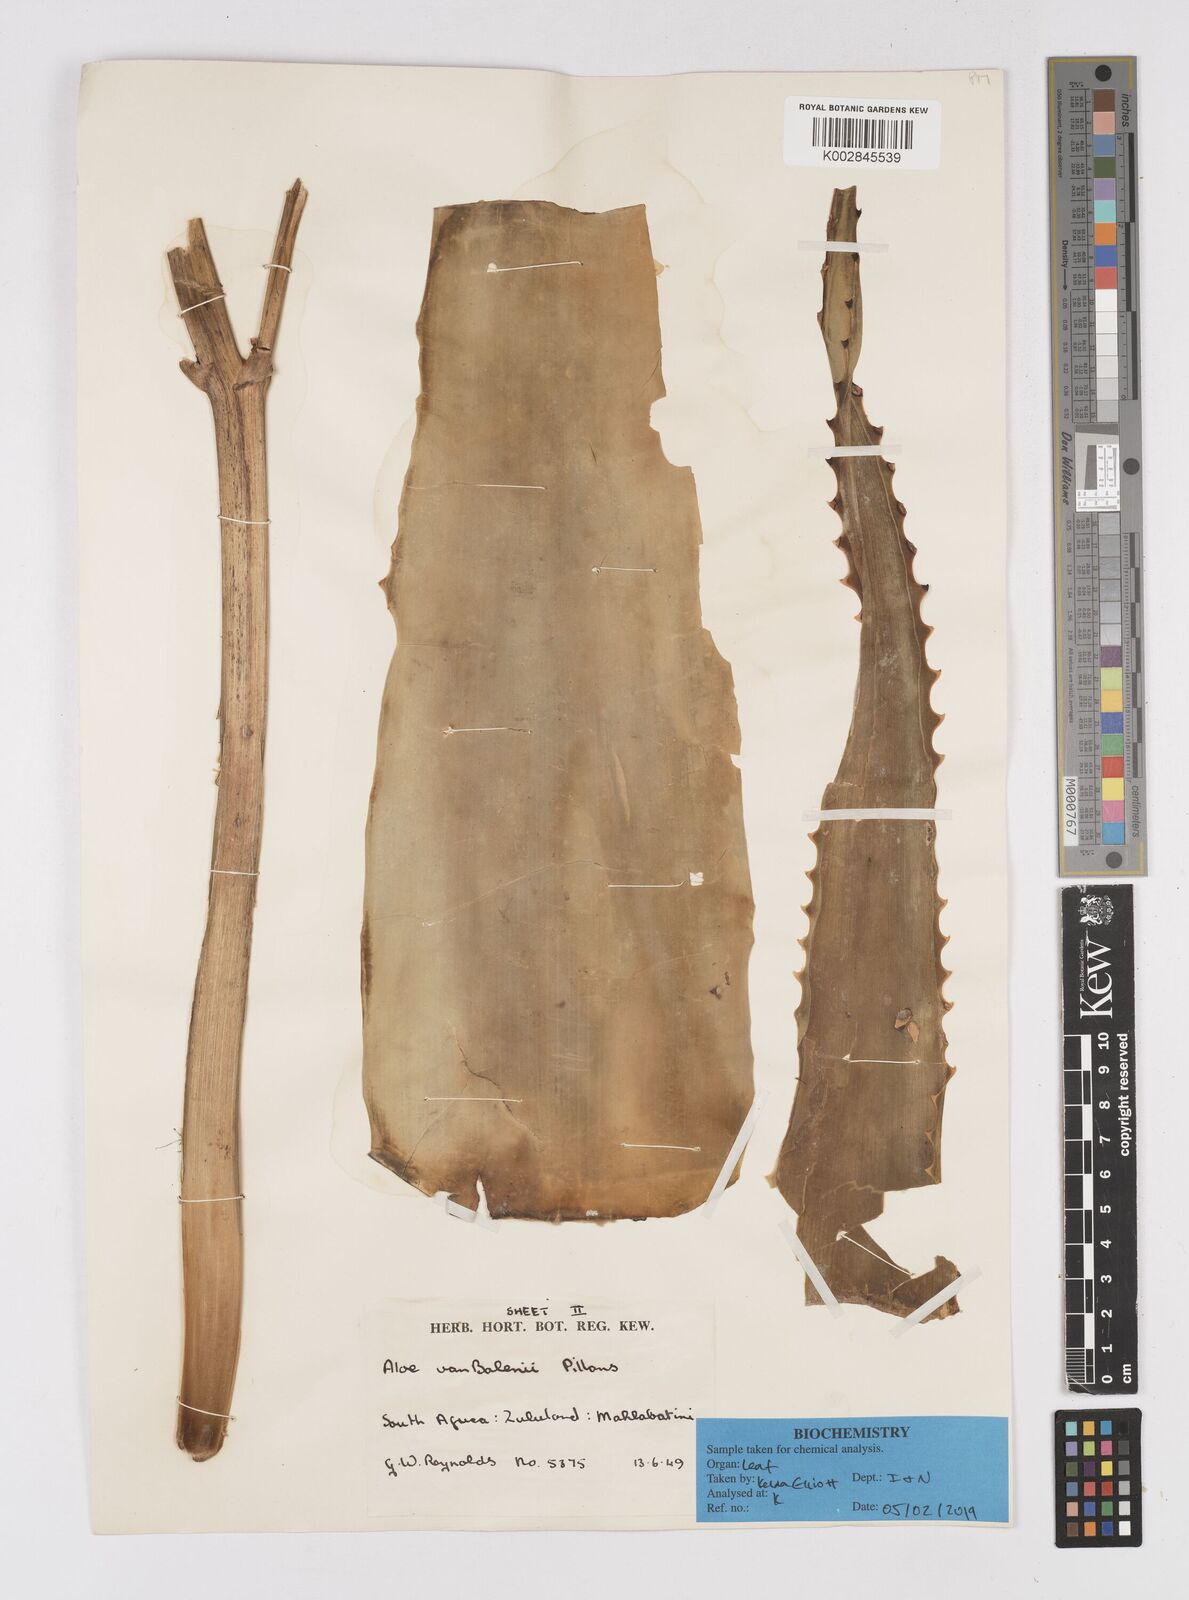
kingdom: Plantae
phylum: Tracheophyta
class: Liliopsida
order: Asparagales
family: Asphodelaceae
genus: Aloe
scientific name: Aloe vanbalenii
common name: Van balen's aloe
